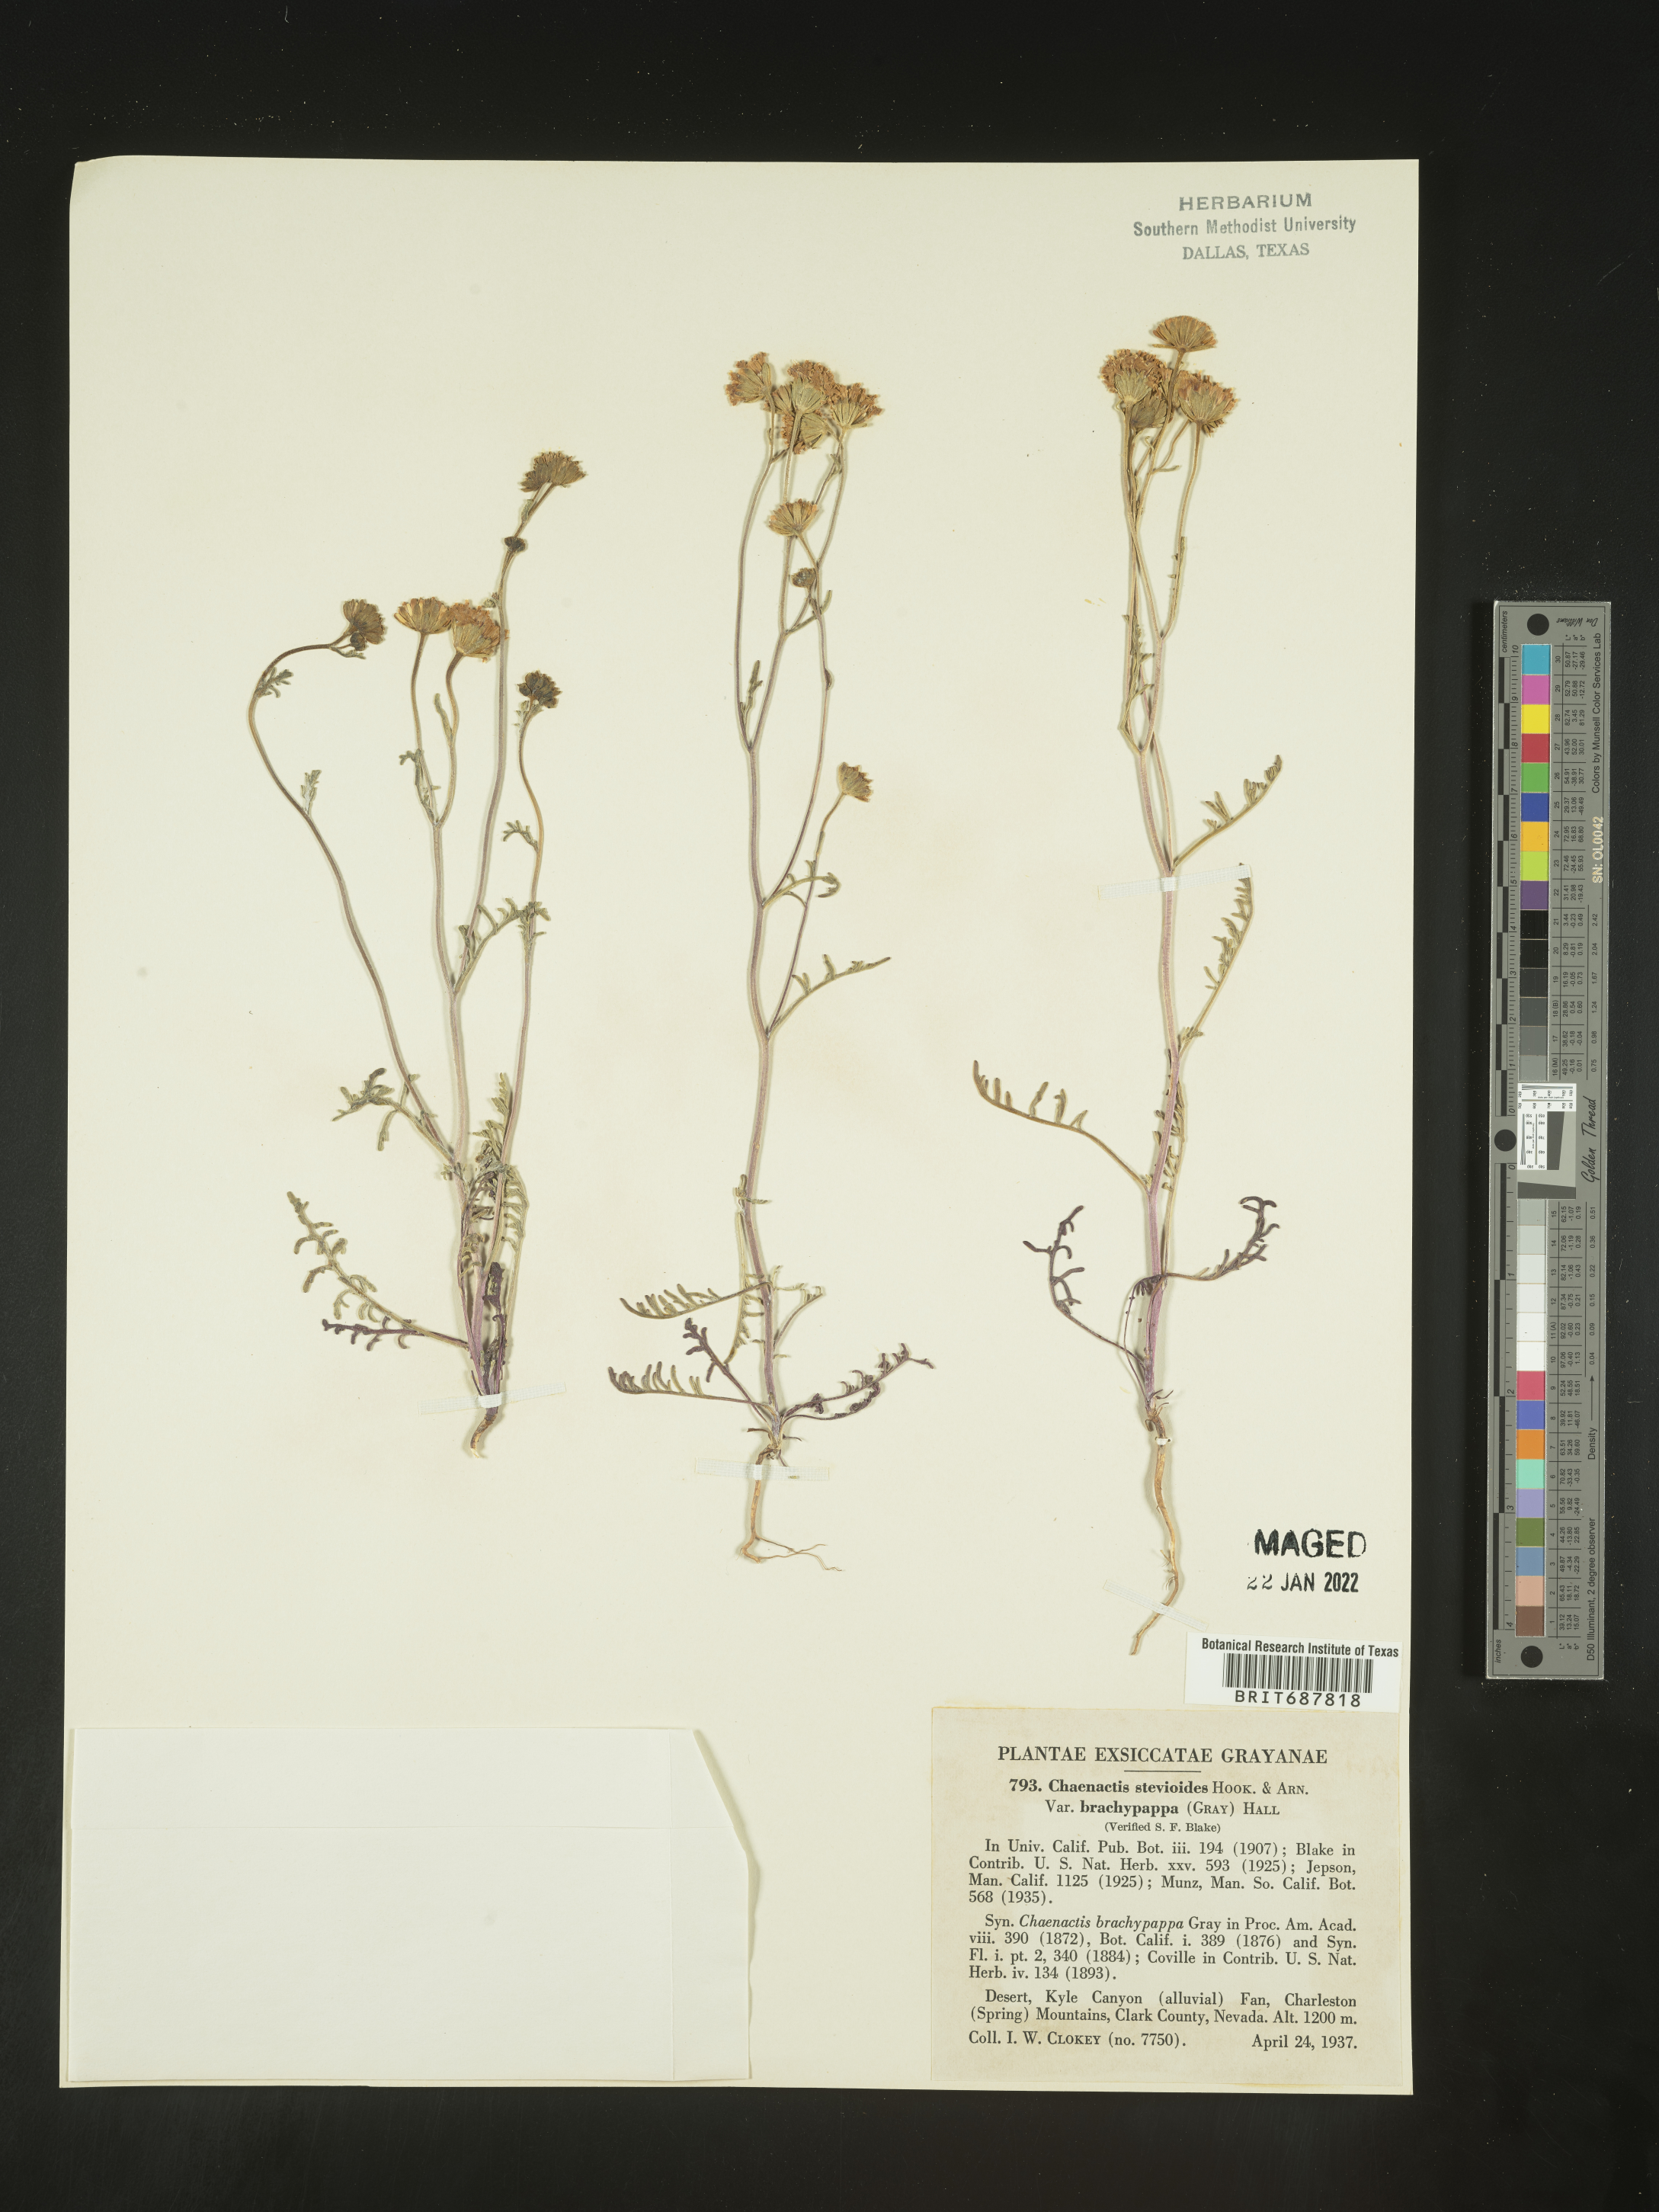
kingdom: Plantae
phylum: Tracheophyta
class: Magnoliopsida
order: Asterales
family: Asteraceae
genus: Chaenactis
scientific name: Chaenactis stevioides
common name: Desert pincushion
